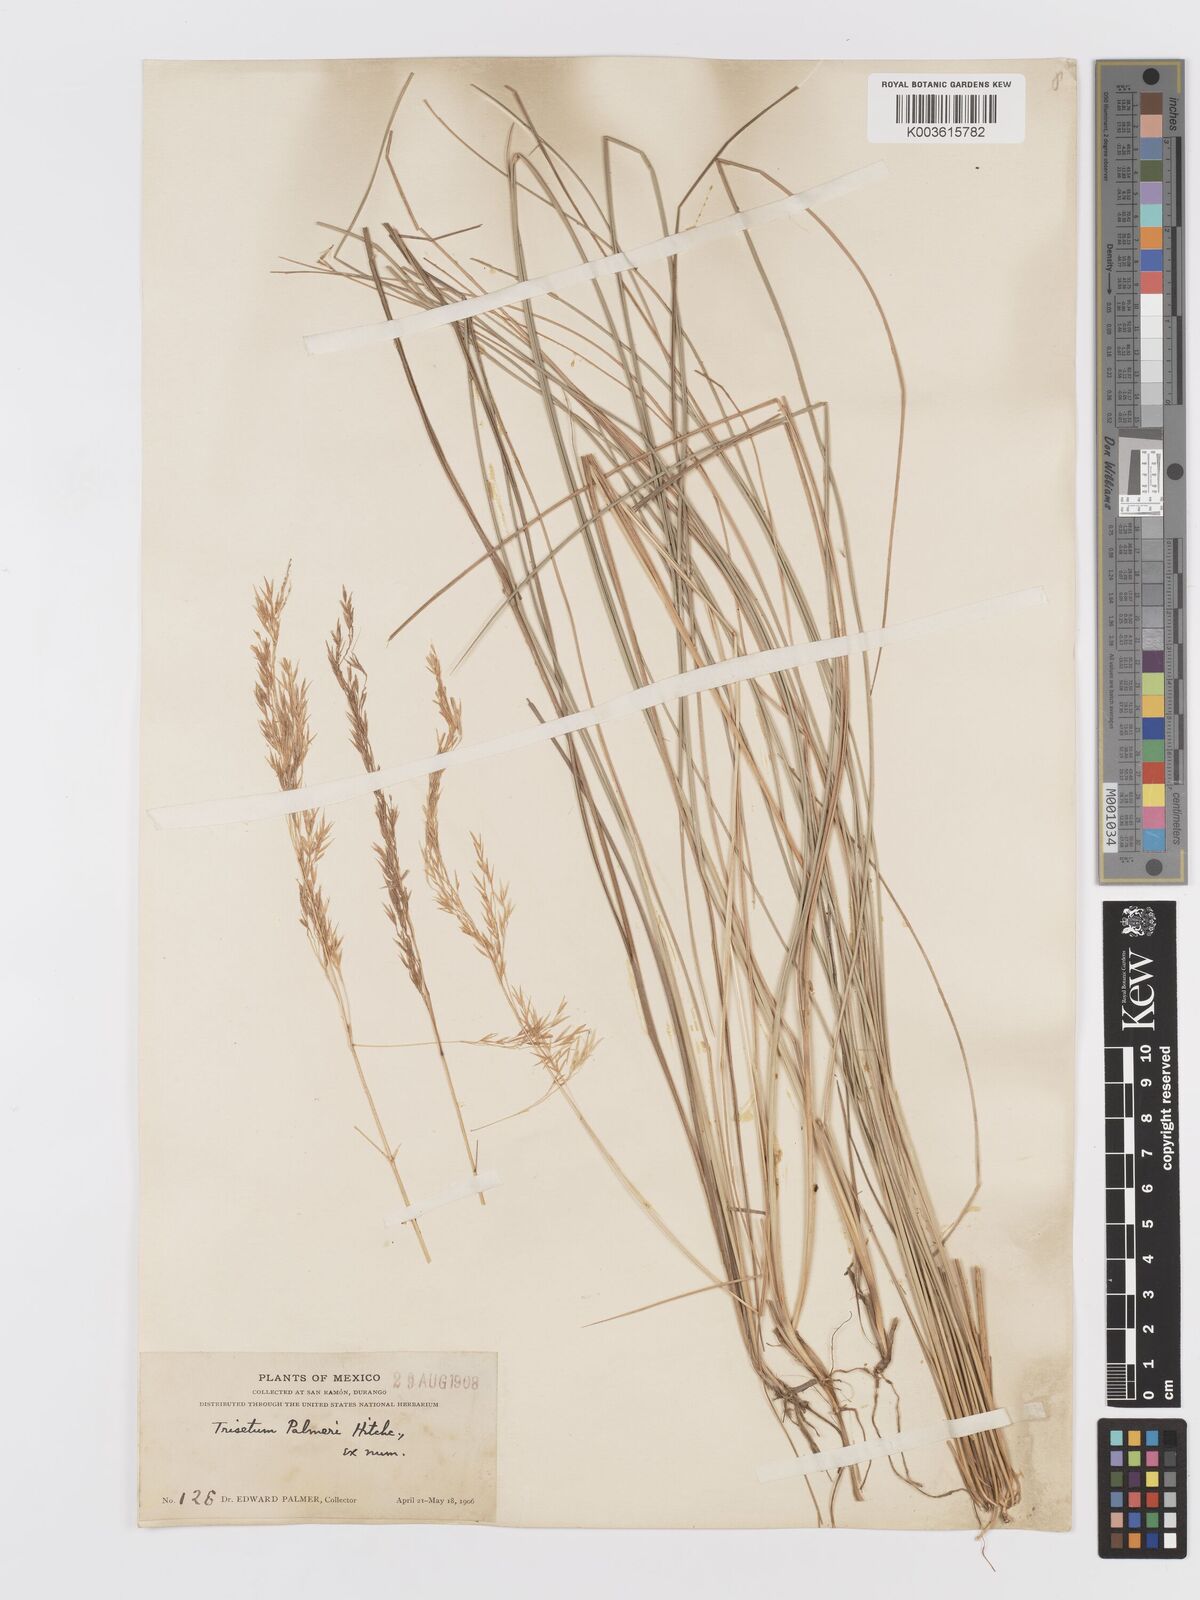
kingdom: Plantae
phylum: Tracheophyta
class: Liliopsida
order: Poales
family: Poaceae
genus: Peyritschia
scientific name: Peyritschia palmeri
